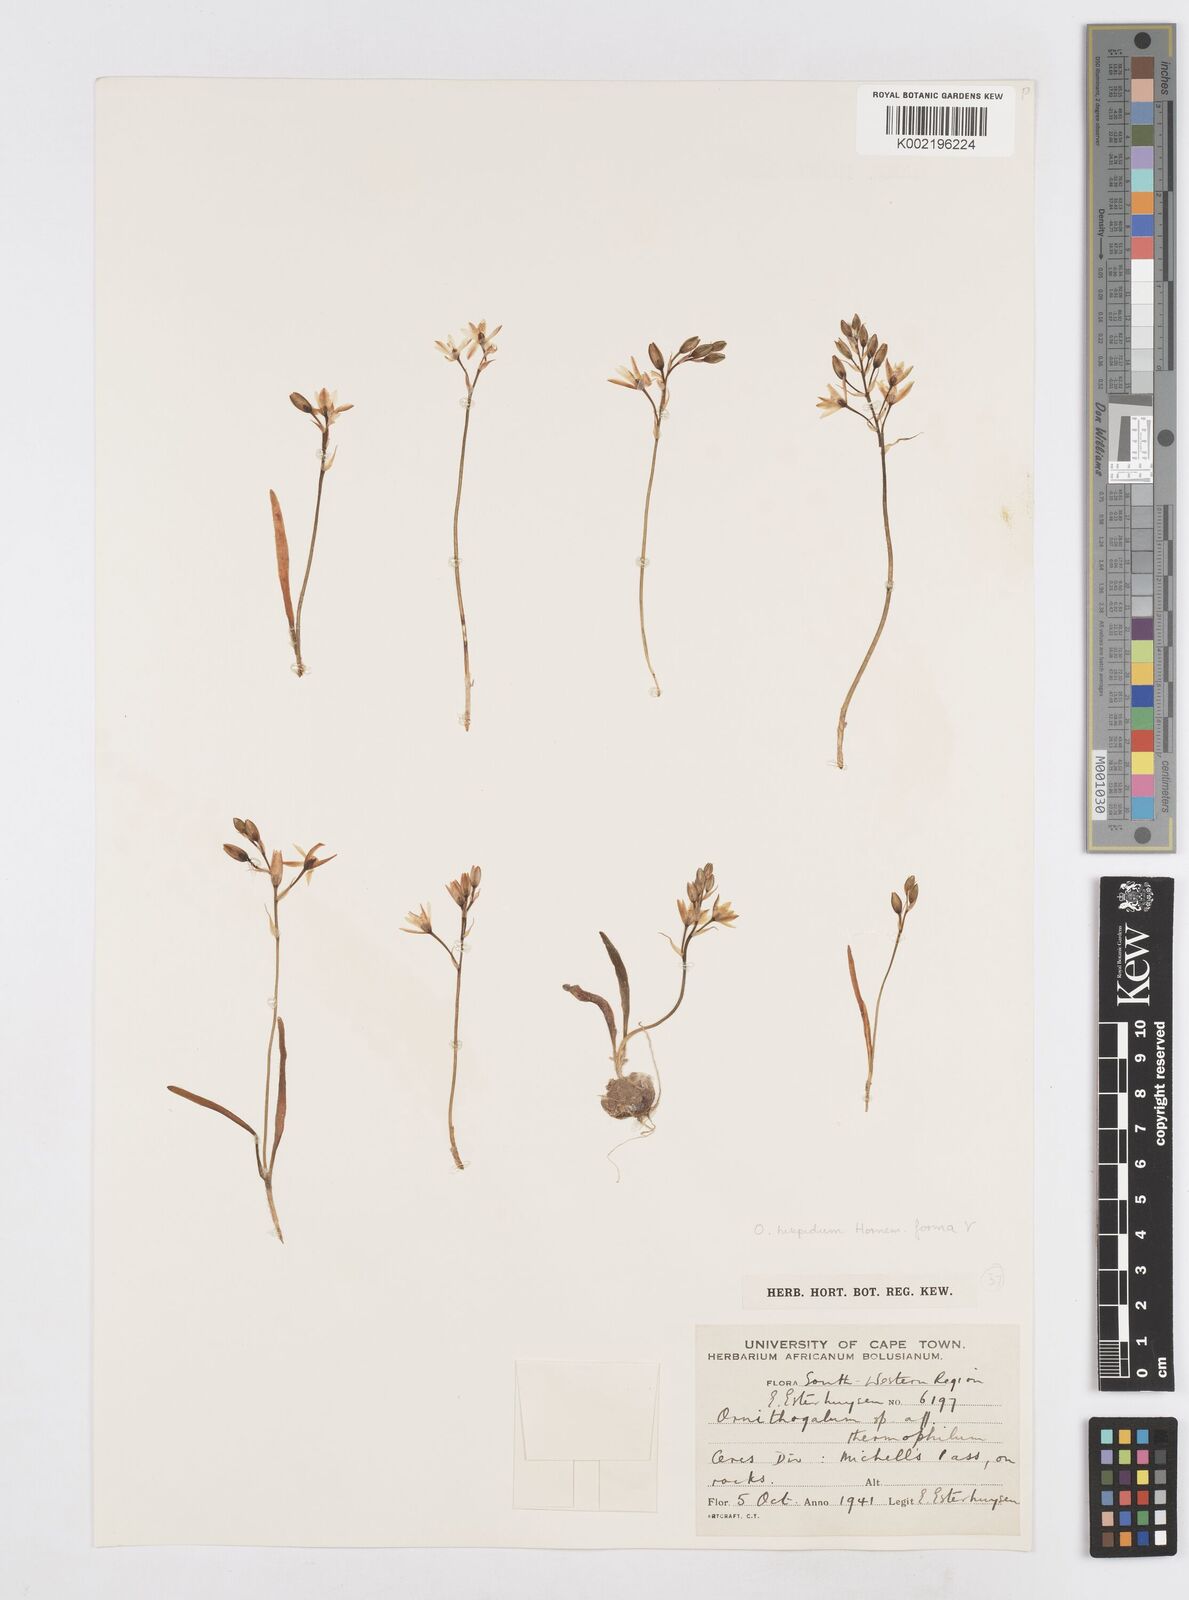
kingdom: Plantae
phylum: Tracheophyta
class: Liliopsida
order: Asparagales
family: Asparagaceae
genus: Ornithogalum
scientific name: Ornithogalum hispidum
